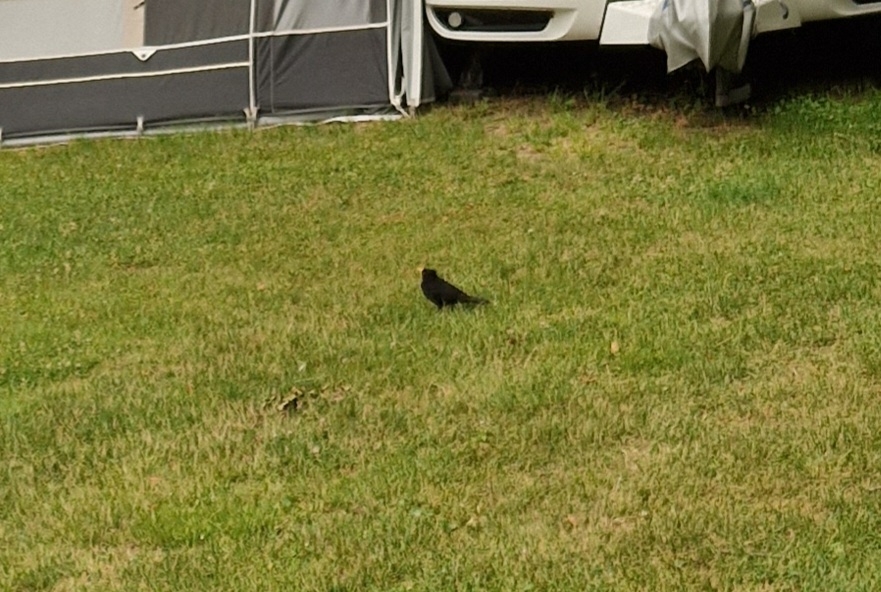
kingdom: Animalia
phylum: Chordata
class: Aves
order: Passeriformes
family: Turdidae
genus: Turdus
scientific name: Turdus merula
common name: Solsort
